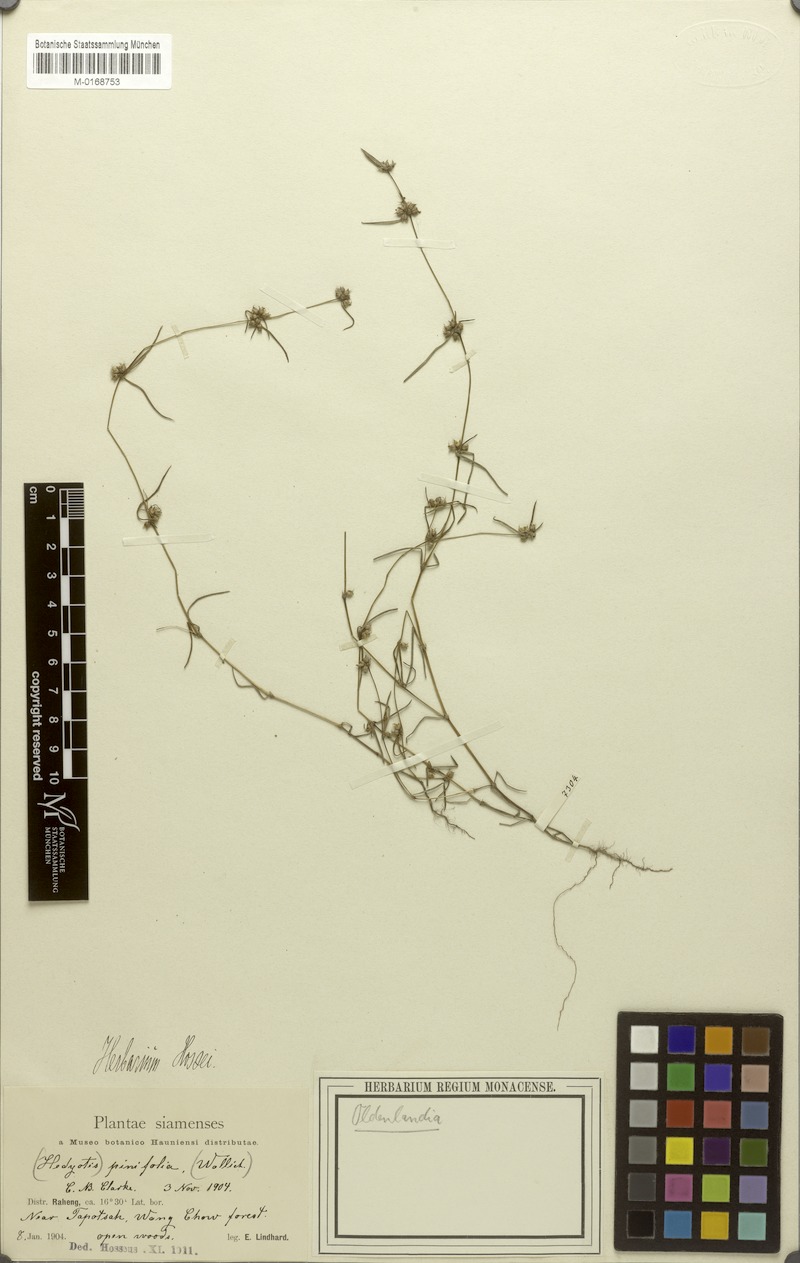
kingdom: Plantae
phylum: Tracheophyta
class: Magnoliopsida
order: Gentianales
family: Rubiaceae
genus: Scleromitrion
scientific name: Scleromitrion pinifolium
